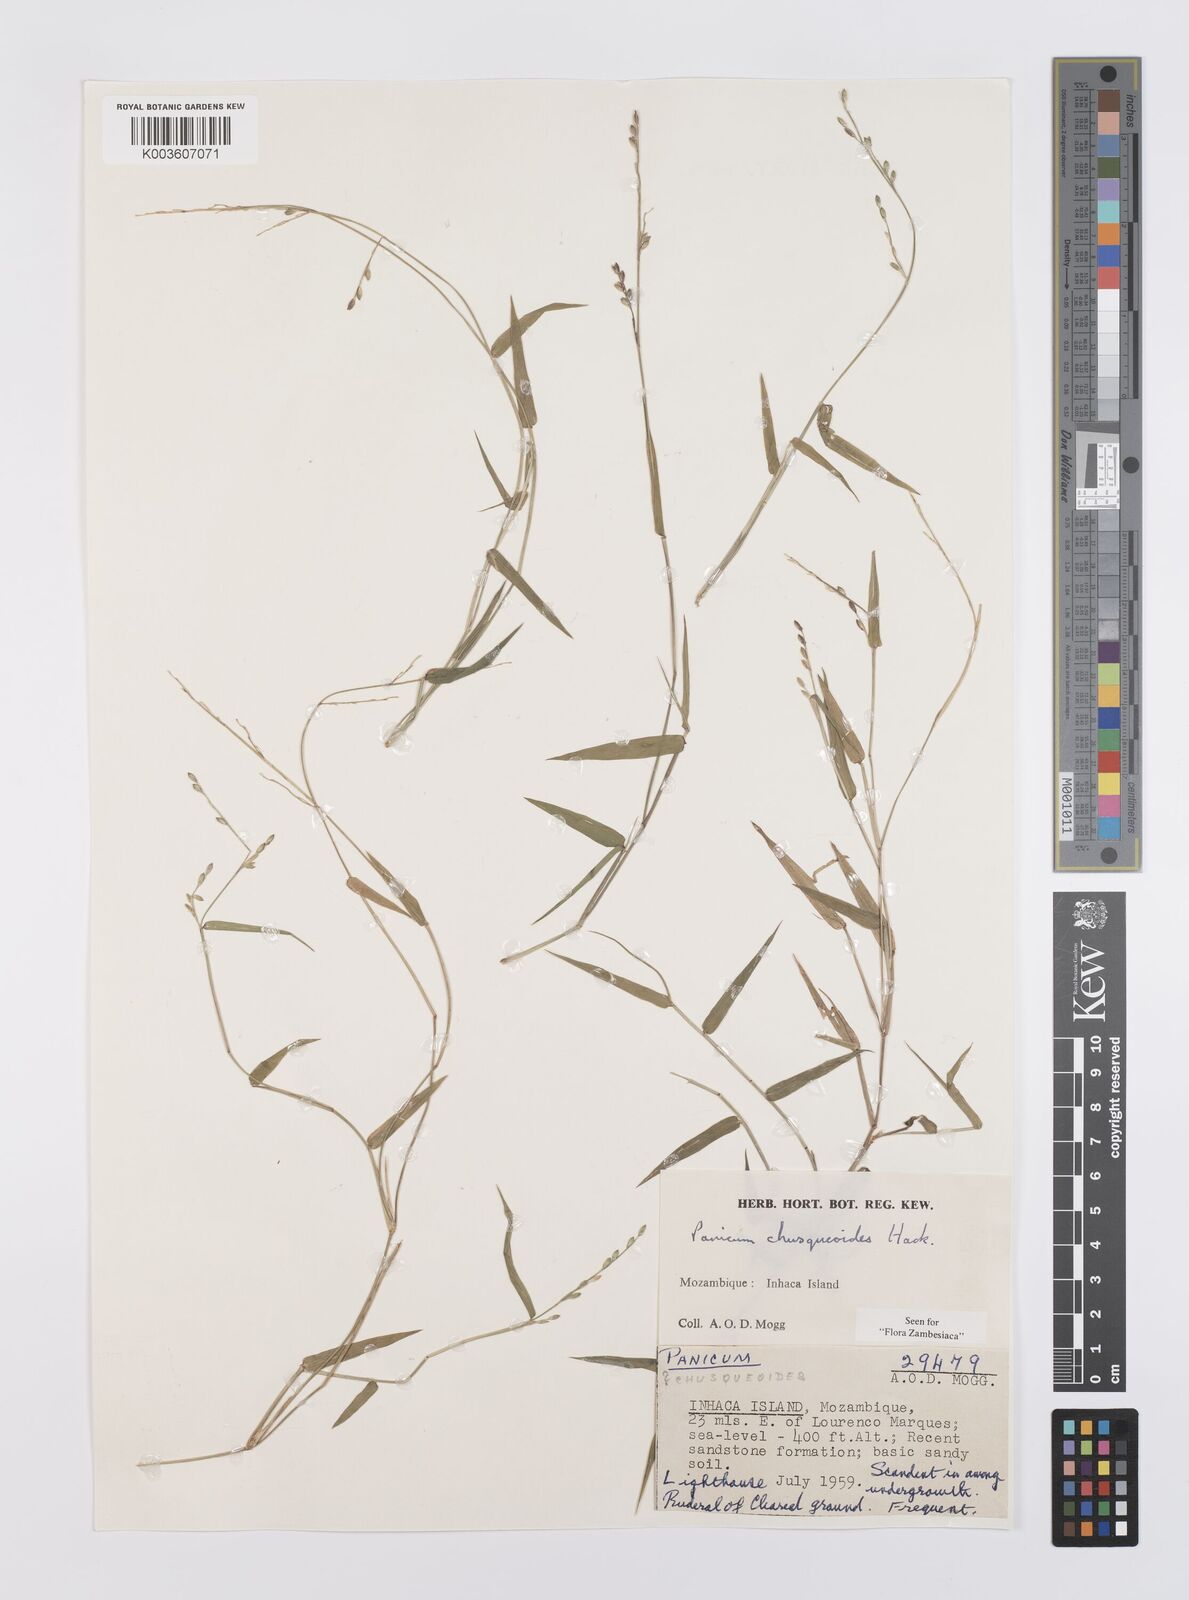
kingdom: Plantae
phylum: Tracheophyta
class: Liliopsida
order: Poales
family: Poaceae
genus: Urochloa
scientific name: Urochloa chusqueoides
